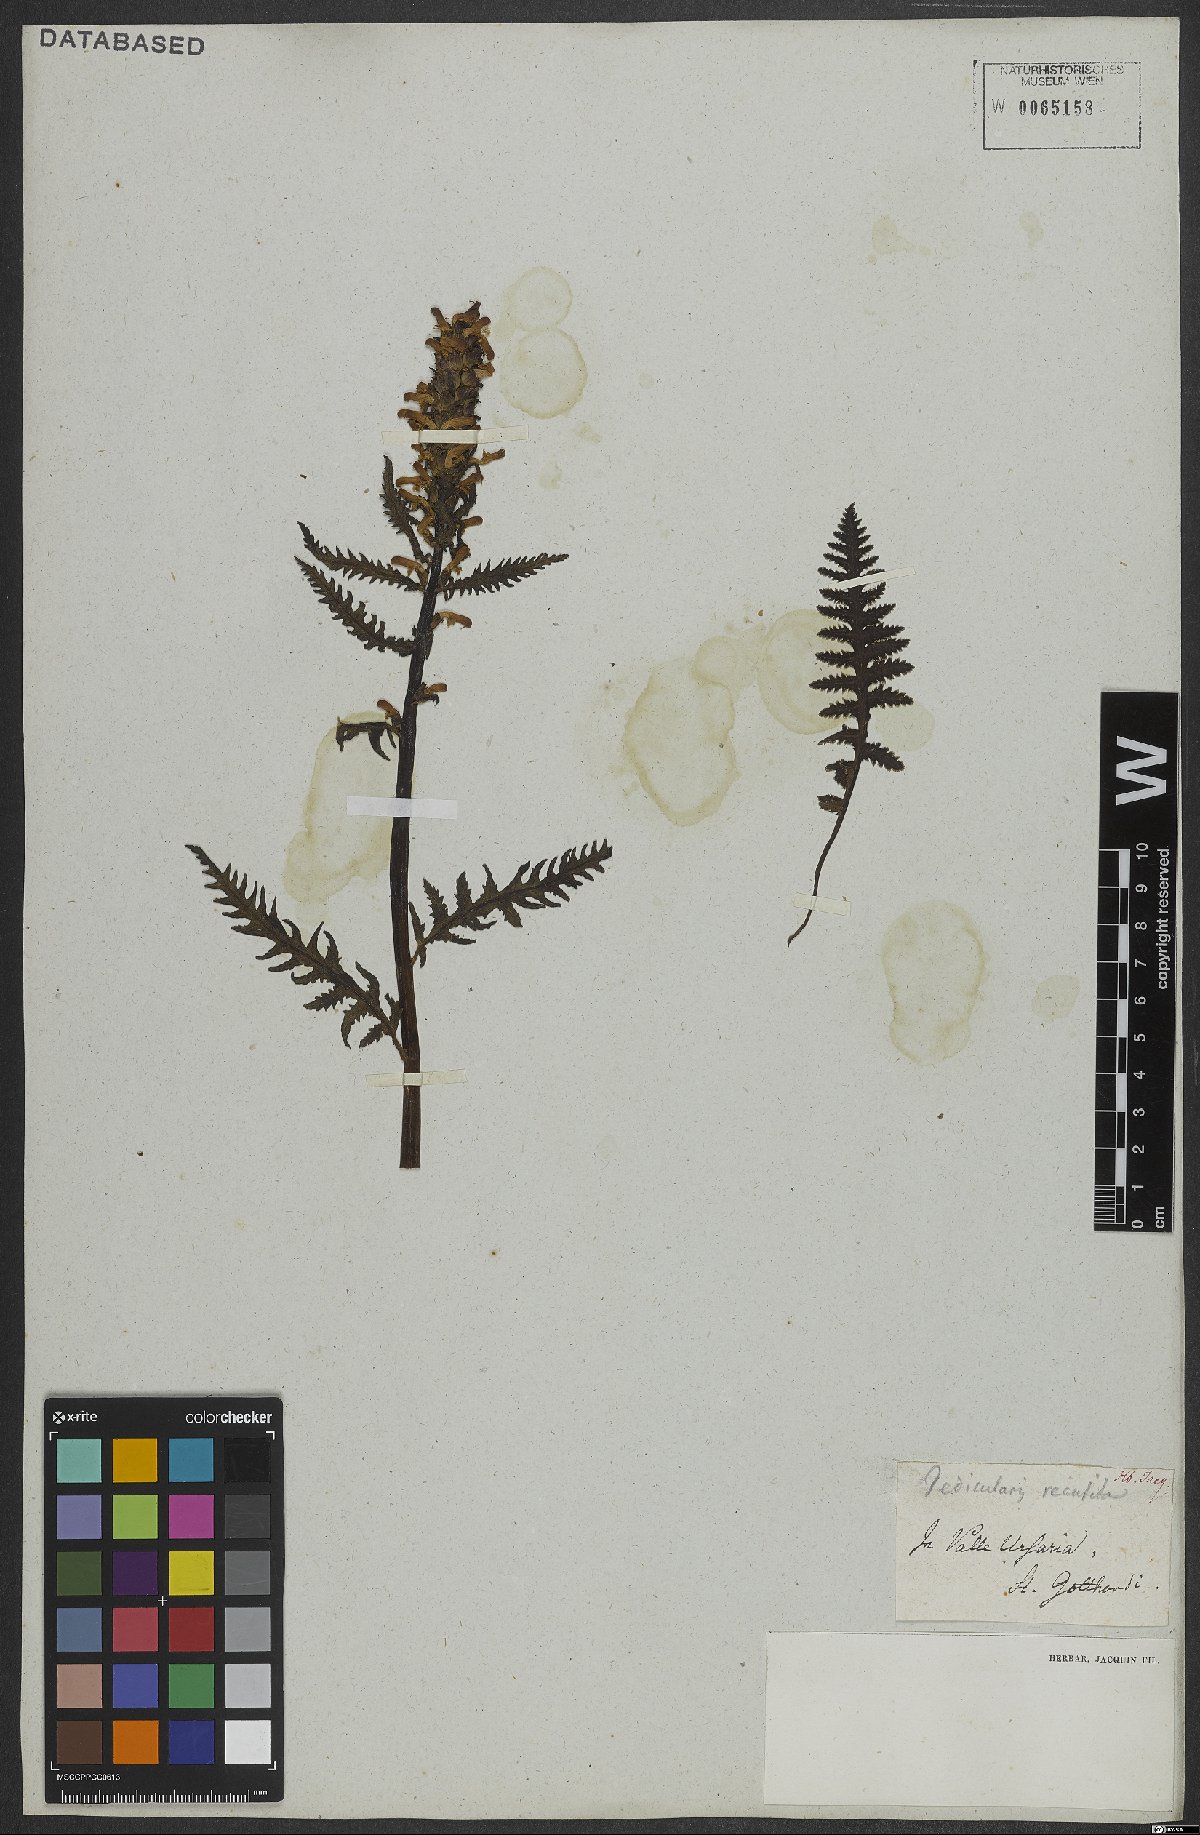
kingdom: Plantae
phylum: Tracheophyta
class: Magnoliopsida
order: Lamiales
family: Orobanchaceae
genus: Pedicularis
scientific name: Pedicularis recutita
